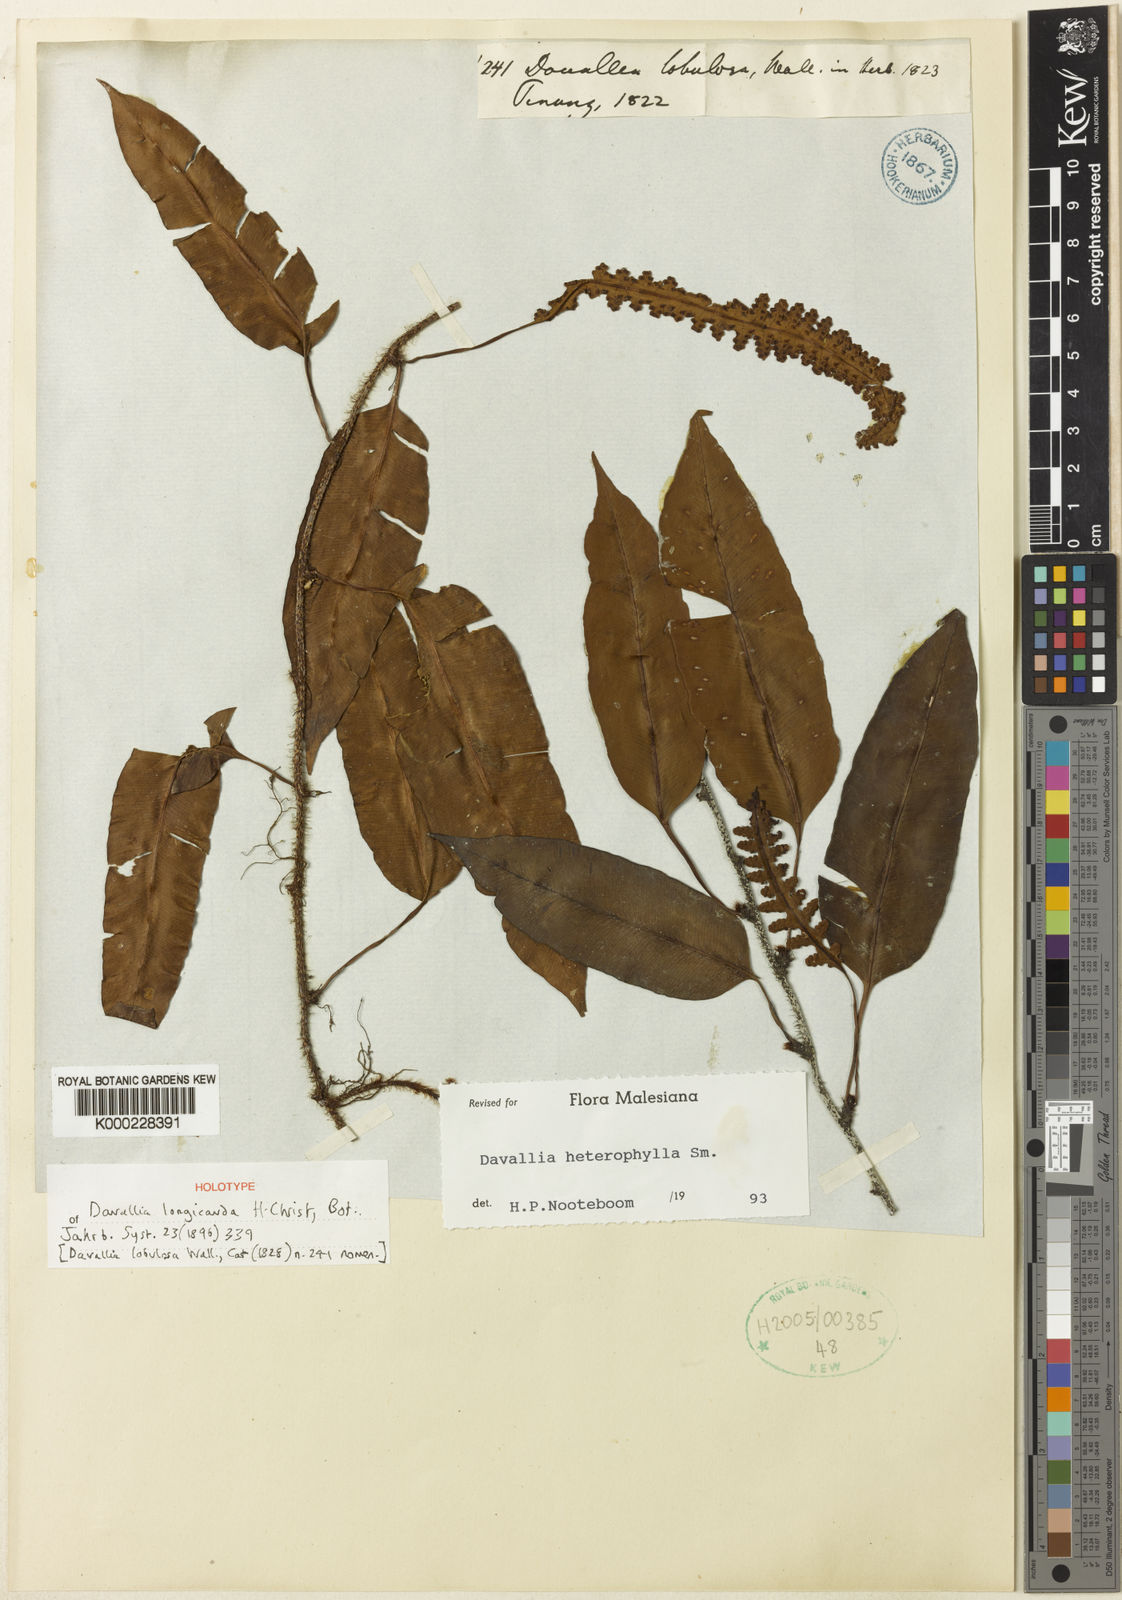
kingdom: Plantae
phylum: Tracheophyta
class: Polypodiopsida
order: Polypodiales
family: Davalliaceae
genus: Davallia
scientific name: Davallia heterophylla
